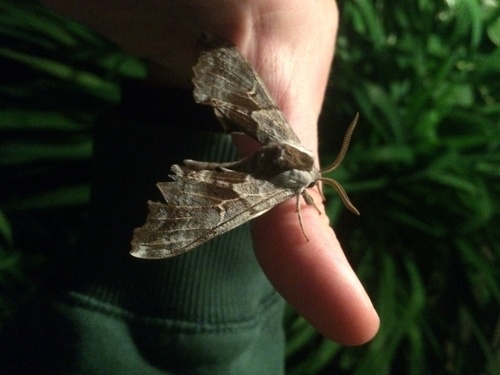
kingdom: Animalia
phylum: Arthropoda
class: Insecta
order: Lepidoptera
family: Sphingidae
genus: Smerinthus
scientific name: Smerinthus cerisyi
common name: Cerisy's sphinx moth
